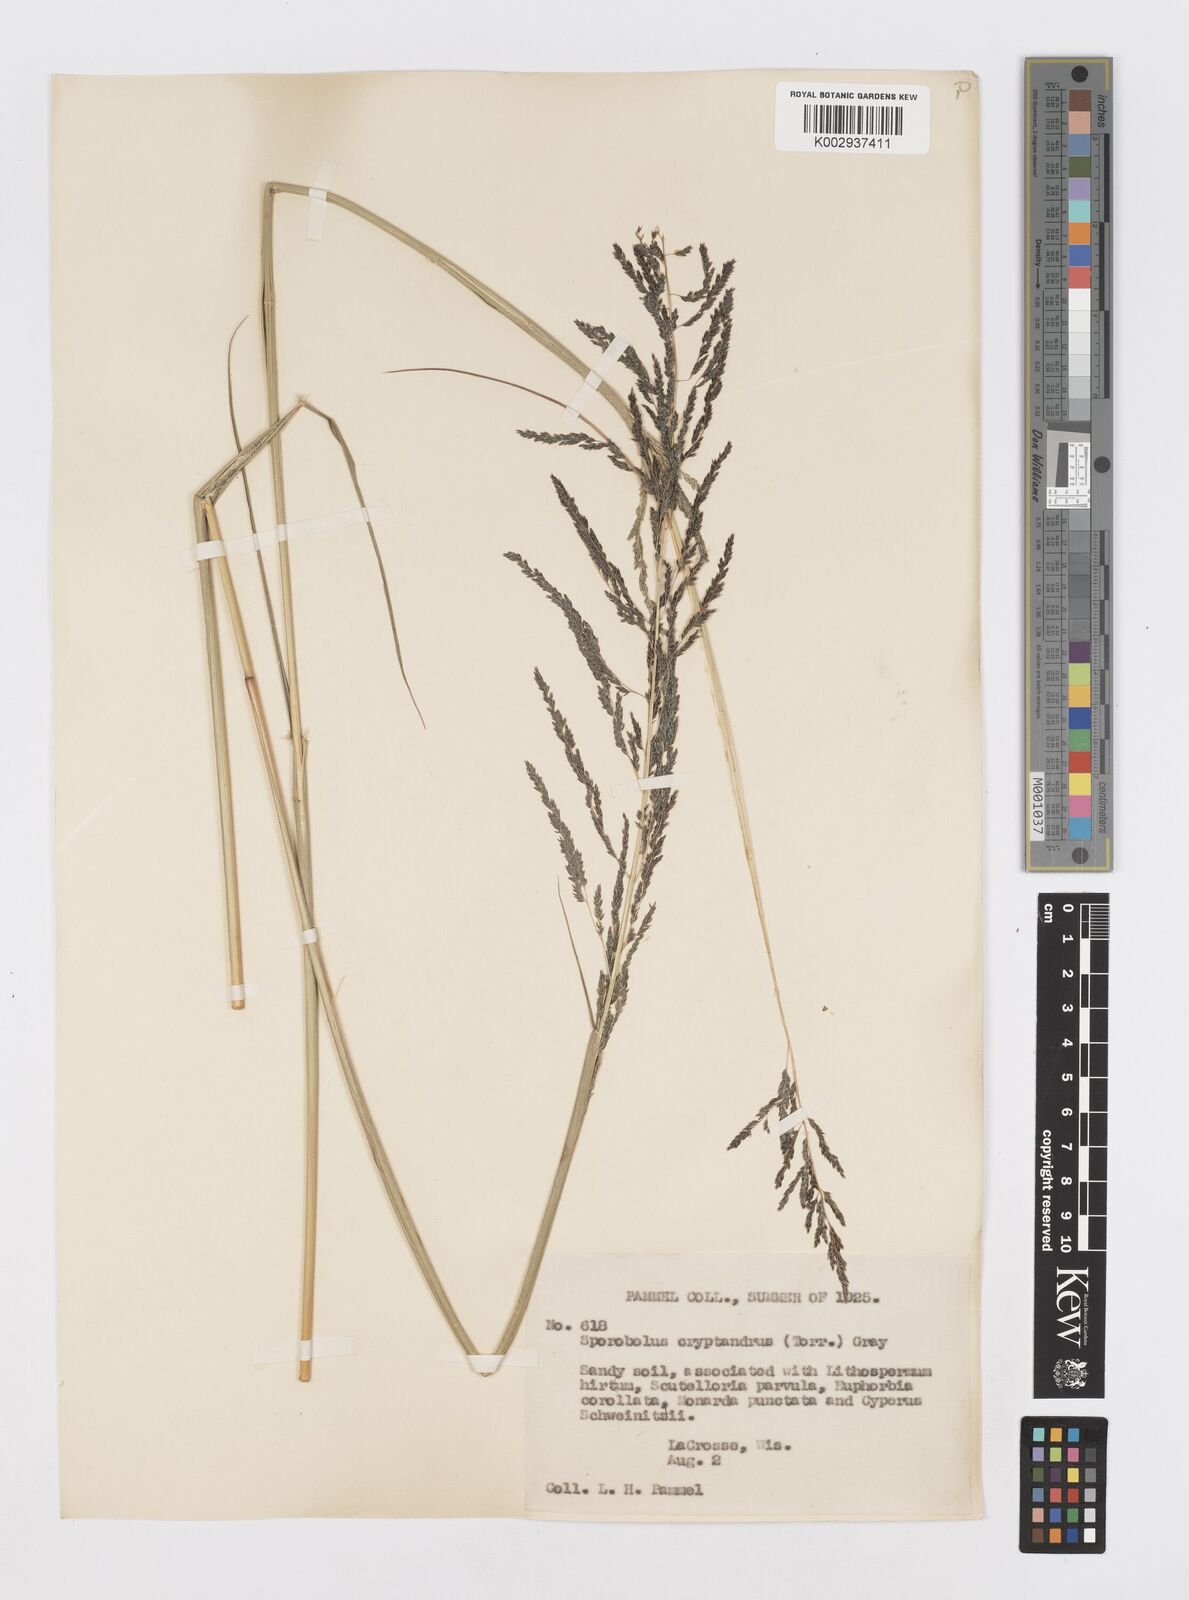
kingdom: Plantae
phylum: Tracheophyta
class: Liliopsida
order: Poales
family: Poaceae
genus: Sporobolus
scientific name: Sporobolus cryptandrus
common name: Sand dropseed
